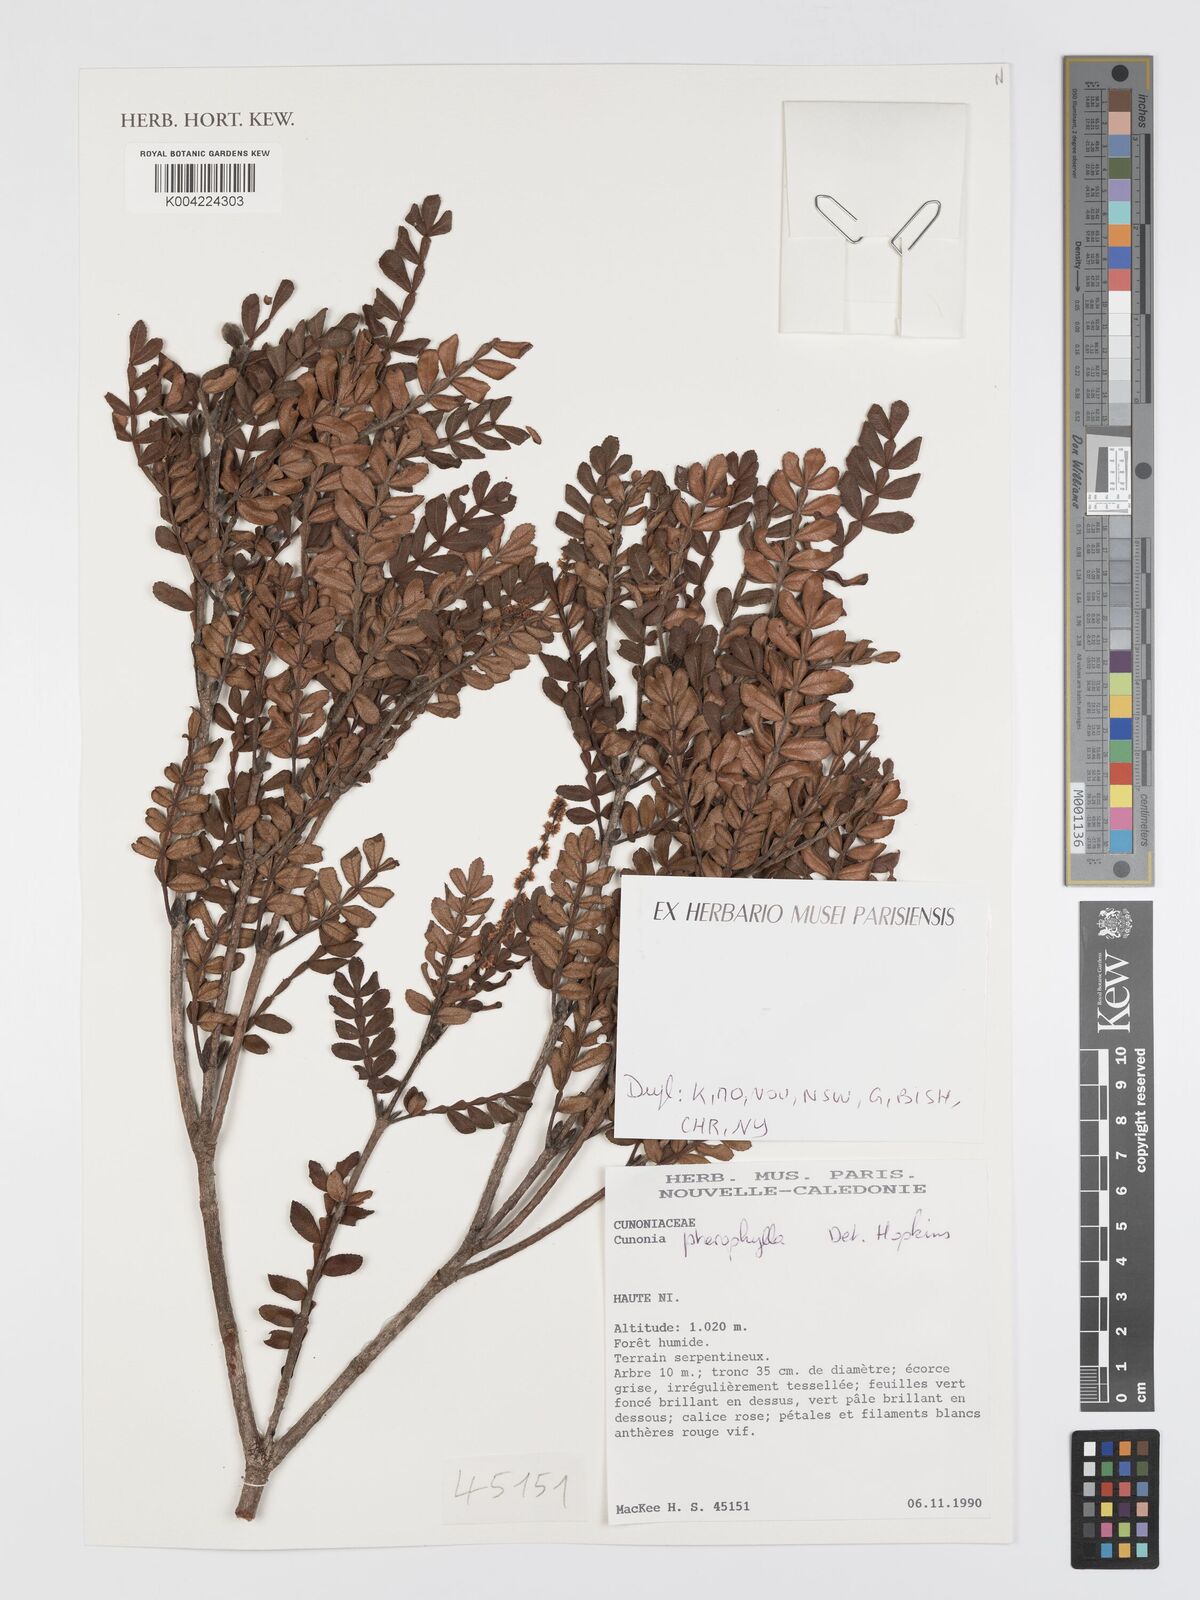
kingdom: Plantae
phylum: Tracheophyta
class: Magnoliopsida
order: Oxalidales
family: Cunoniaceae
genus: Cunonia
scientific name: Cunonia pterophylla
